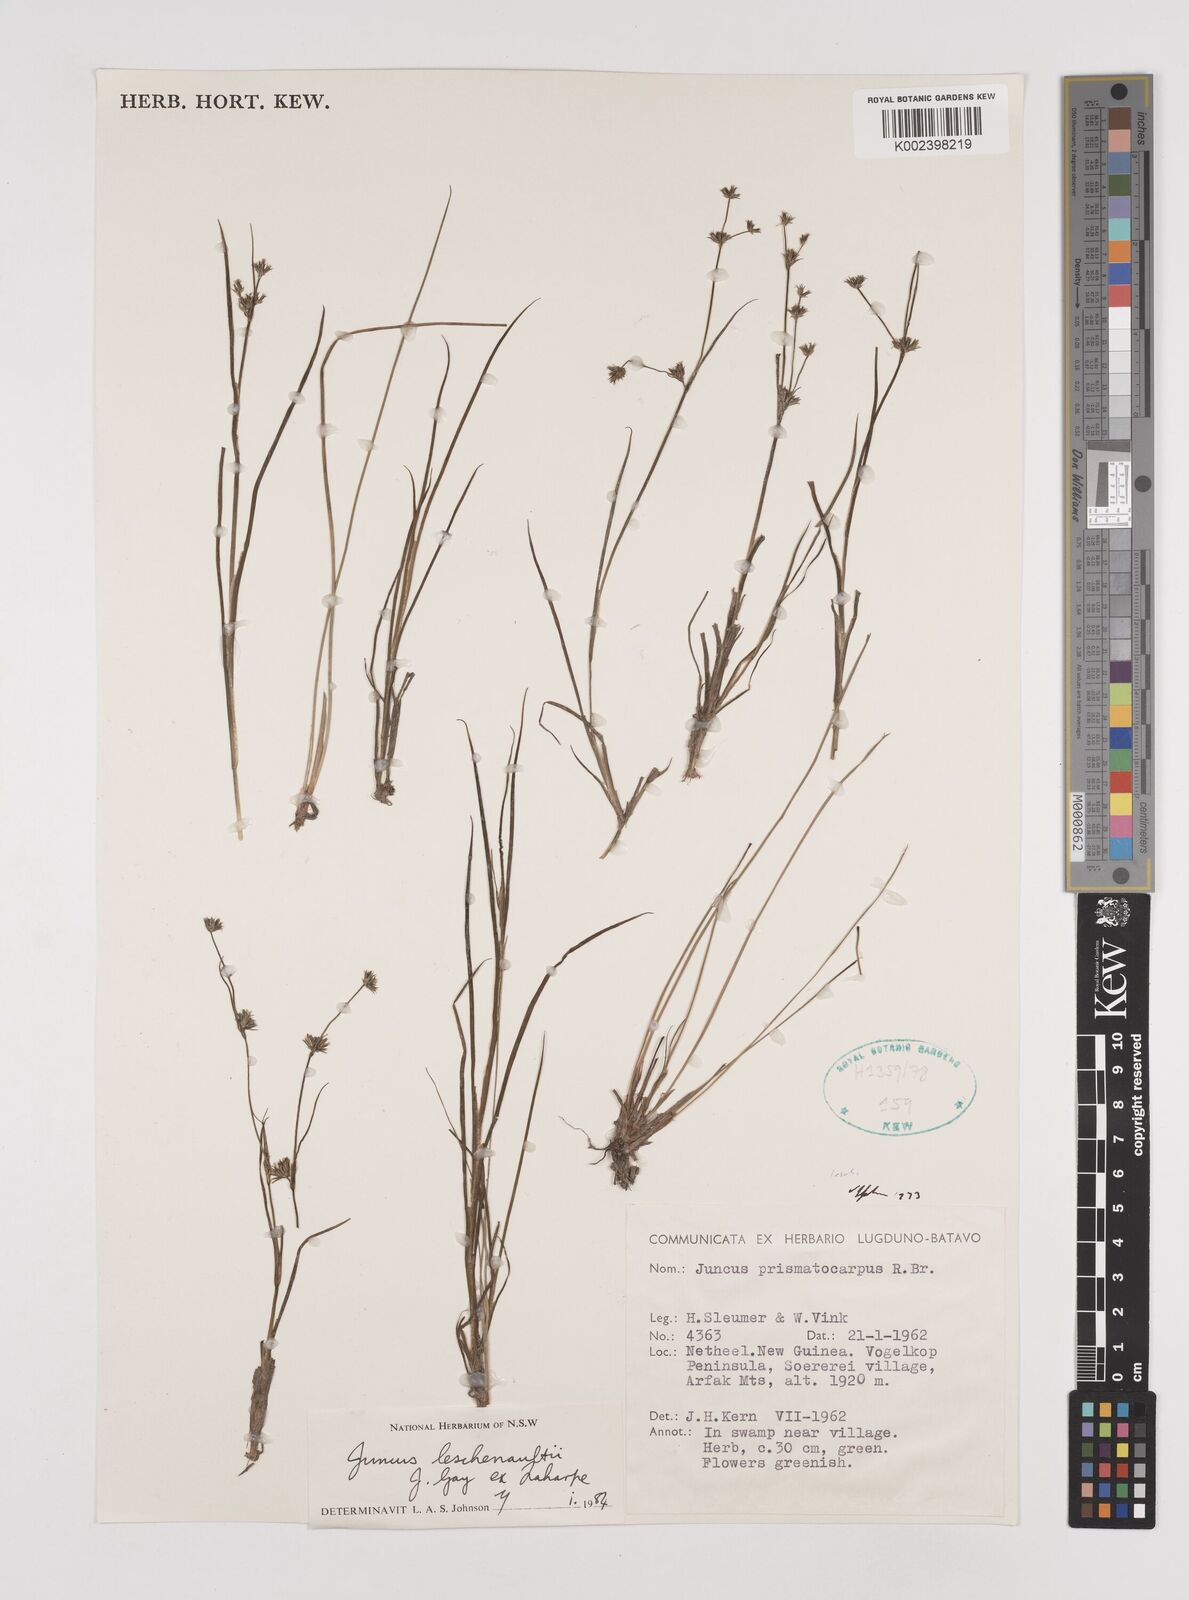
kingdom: Plantae
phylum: Tracheophyta
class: Liliopsida
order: Poales
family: Juncaceae
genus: Juncus
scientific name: Juncus prismatocarpus
